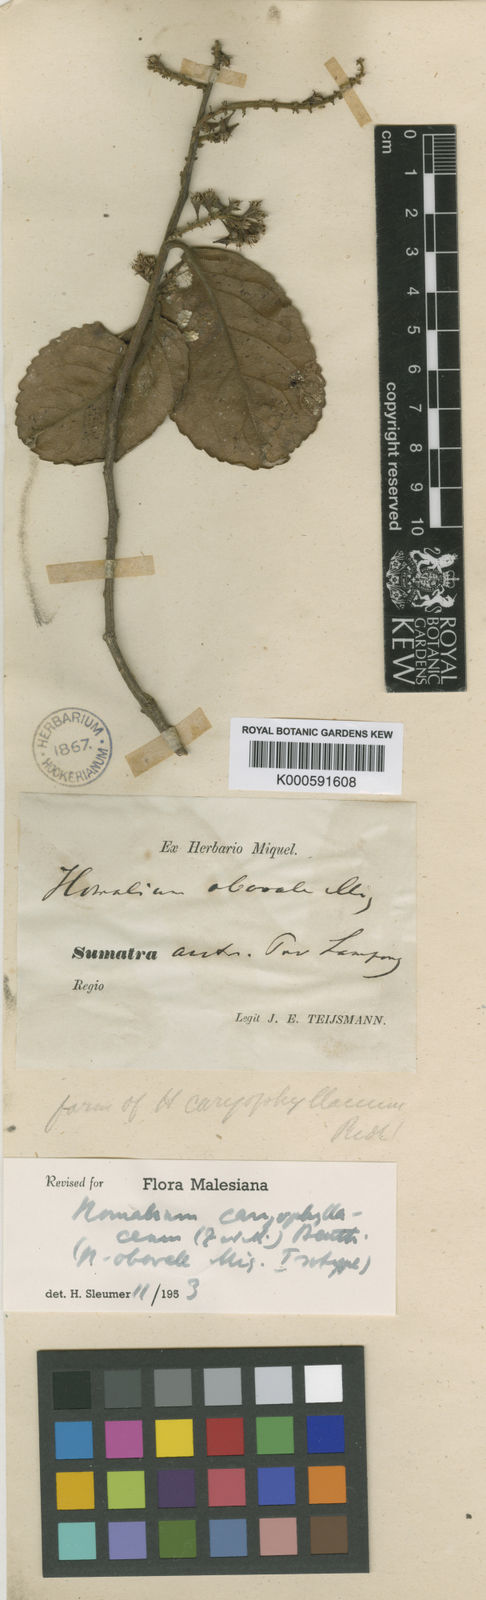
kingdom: Plantae
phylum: Tracheophyta
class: Magnoliopsida
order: Malpighiales
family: Salicaceae
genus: Homalium
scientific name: Homalium caryophyllaceum
